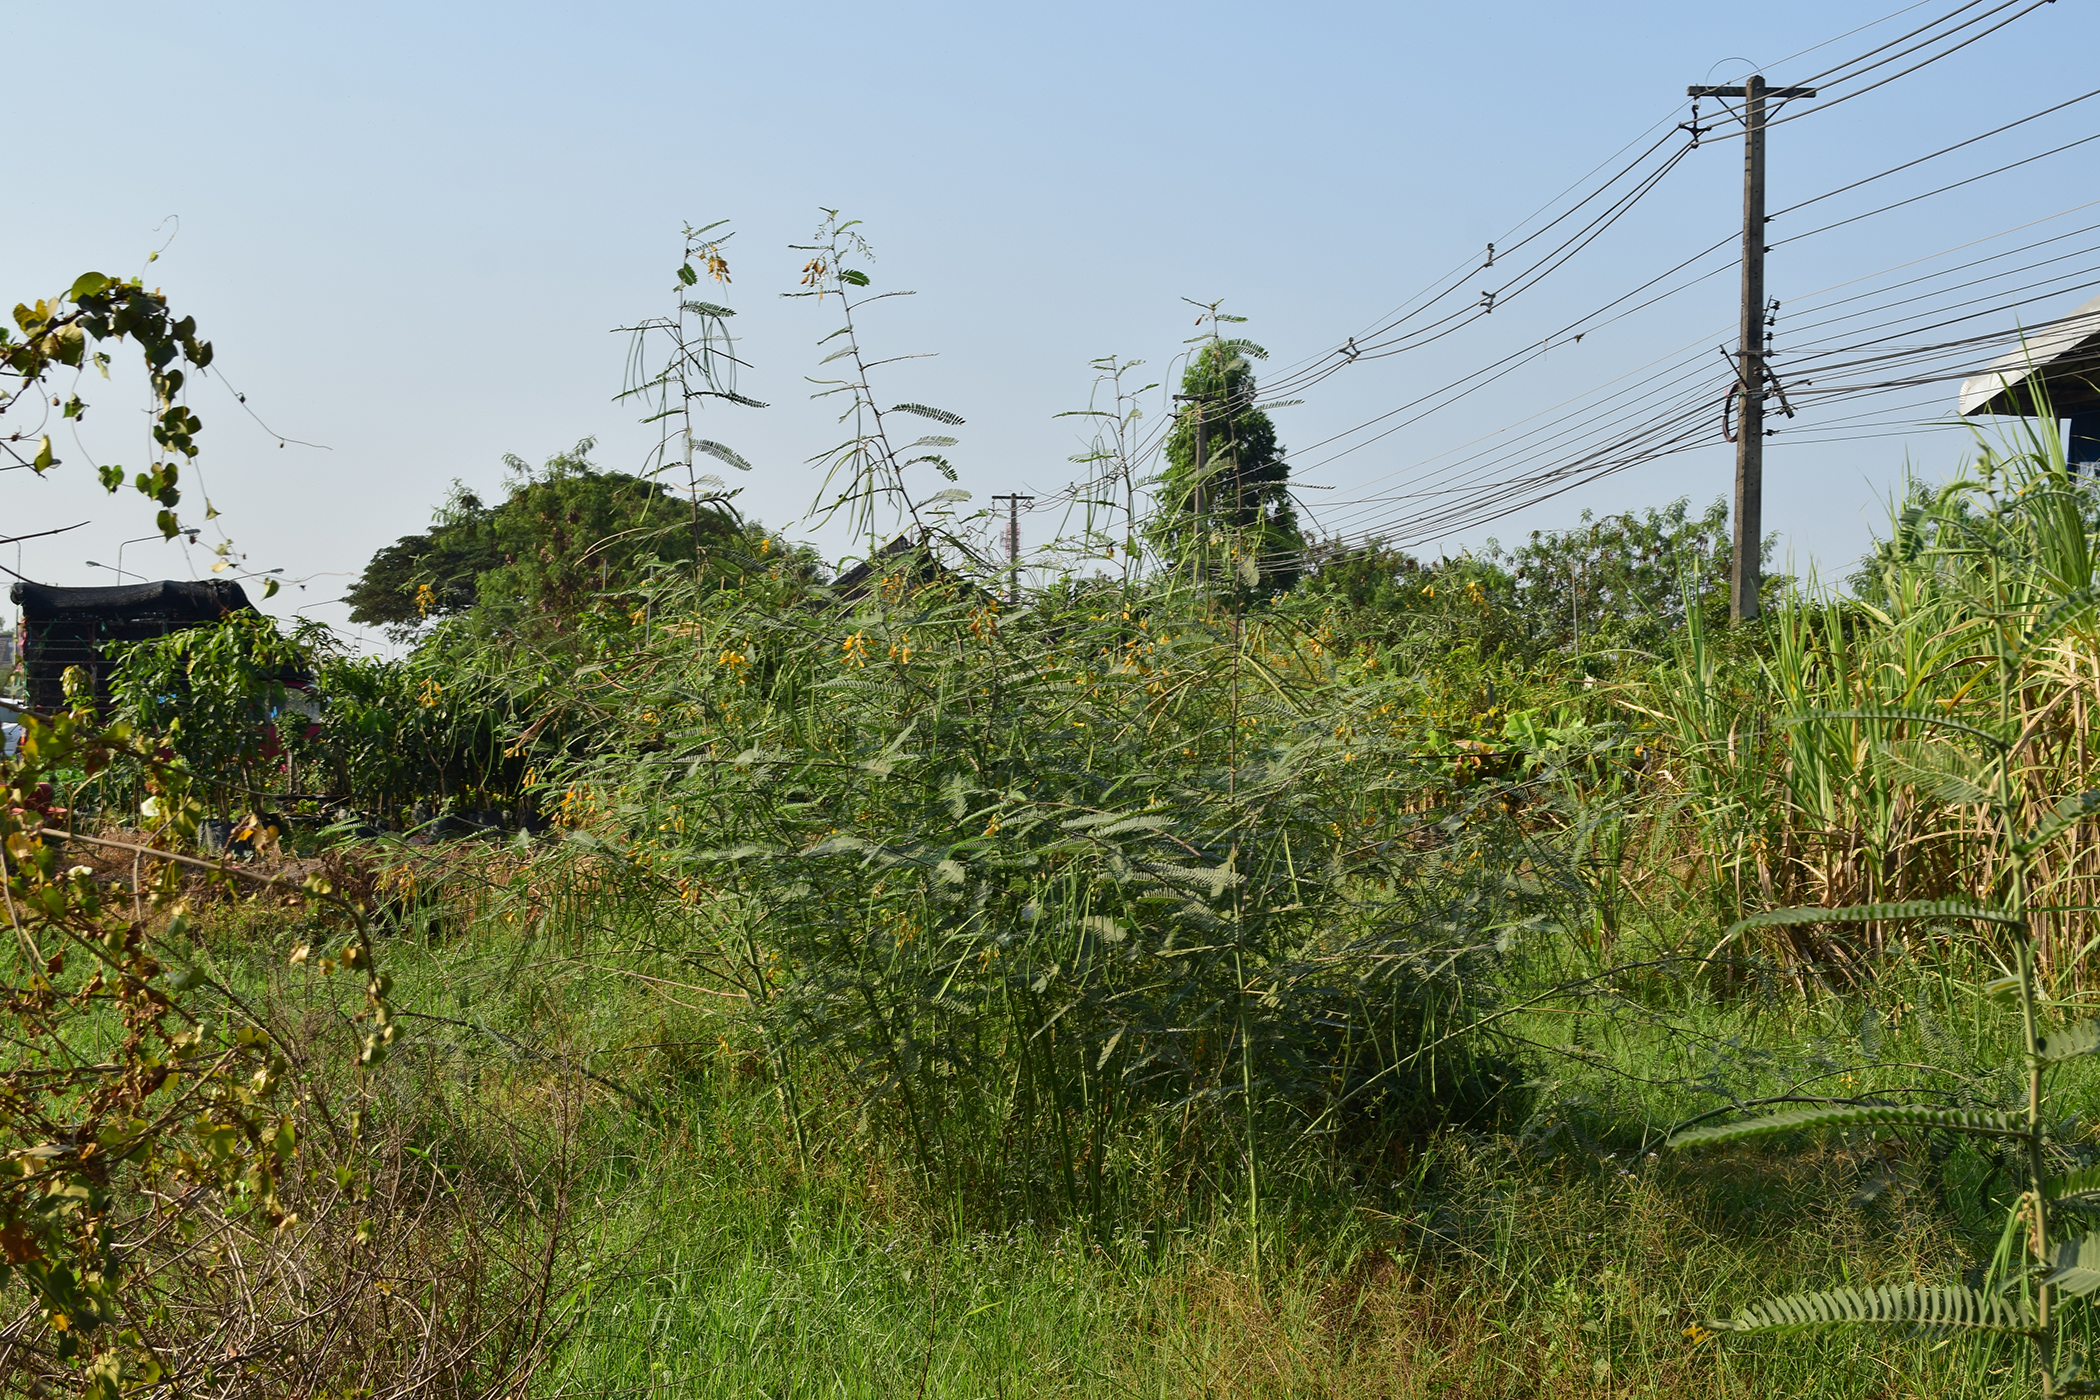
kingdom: Plantae
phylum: Tracheophyta
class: Magnoliopsida
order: Fabales
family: Fabaceae
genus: Sesbania
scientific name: Sesbania speciosa
